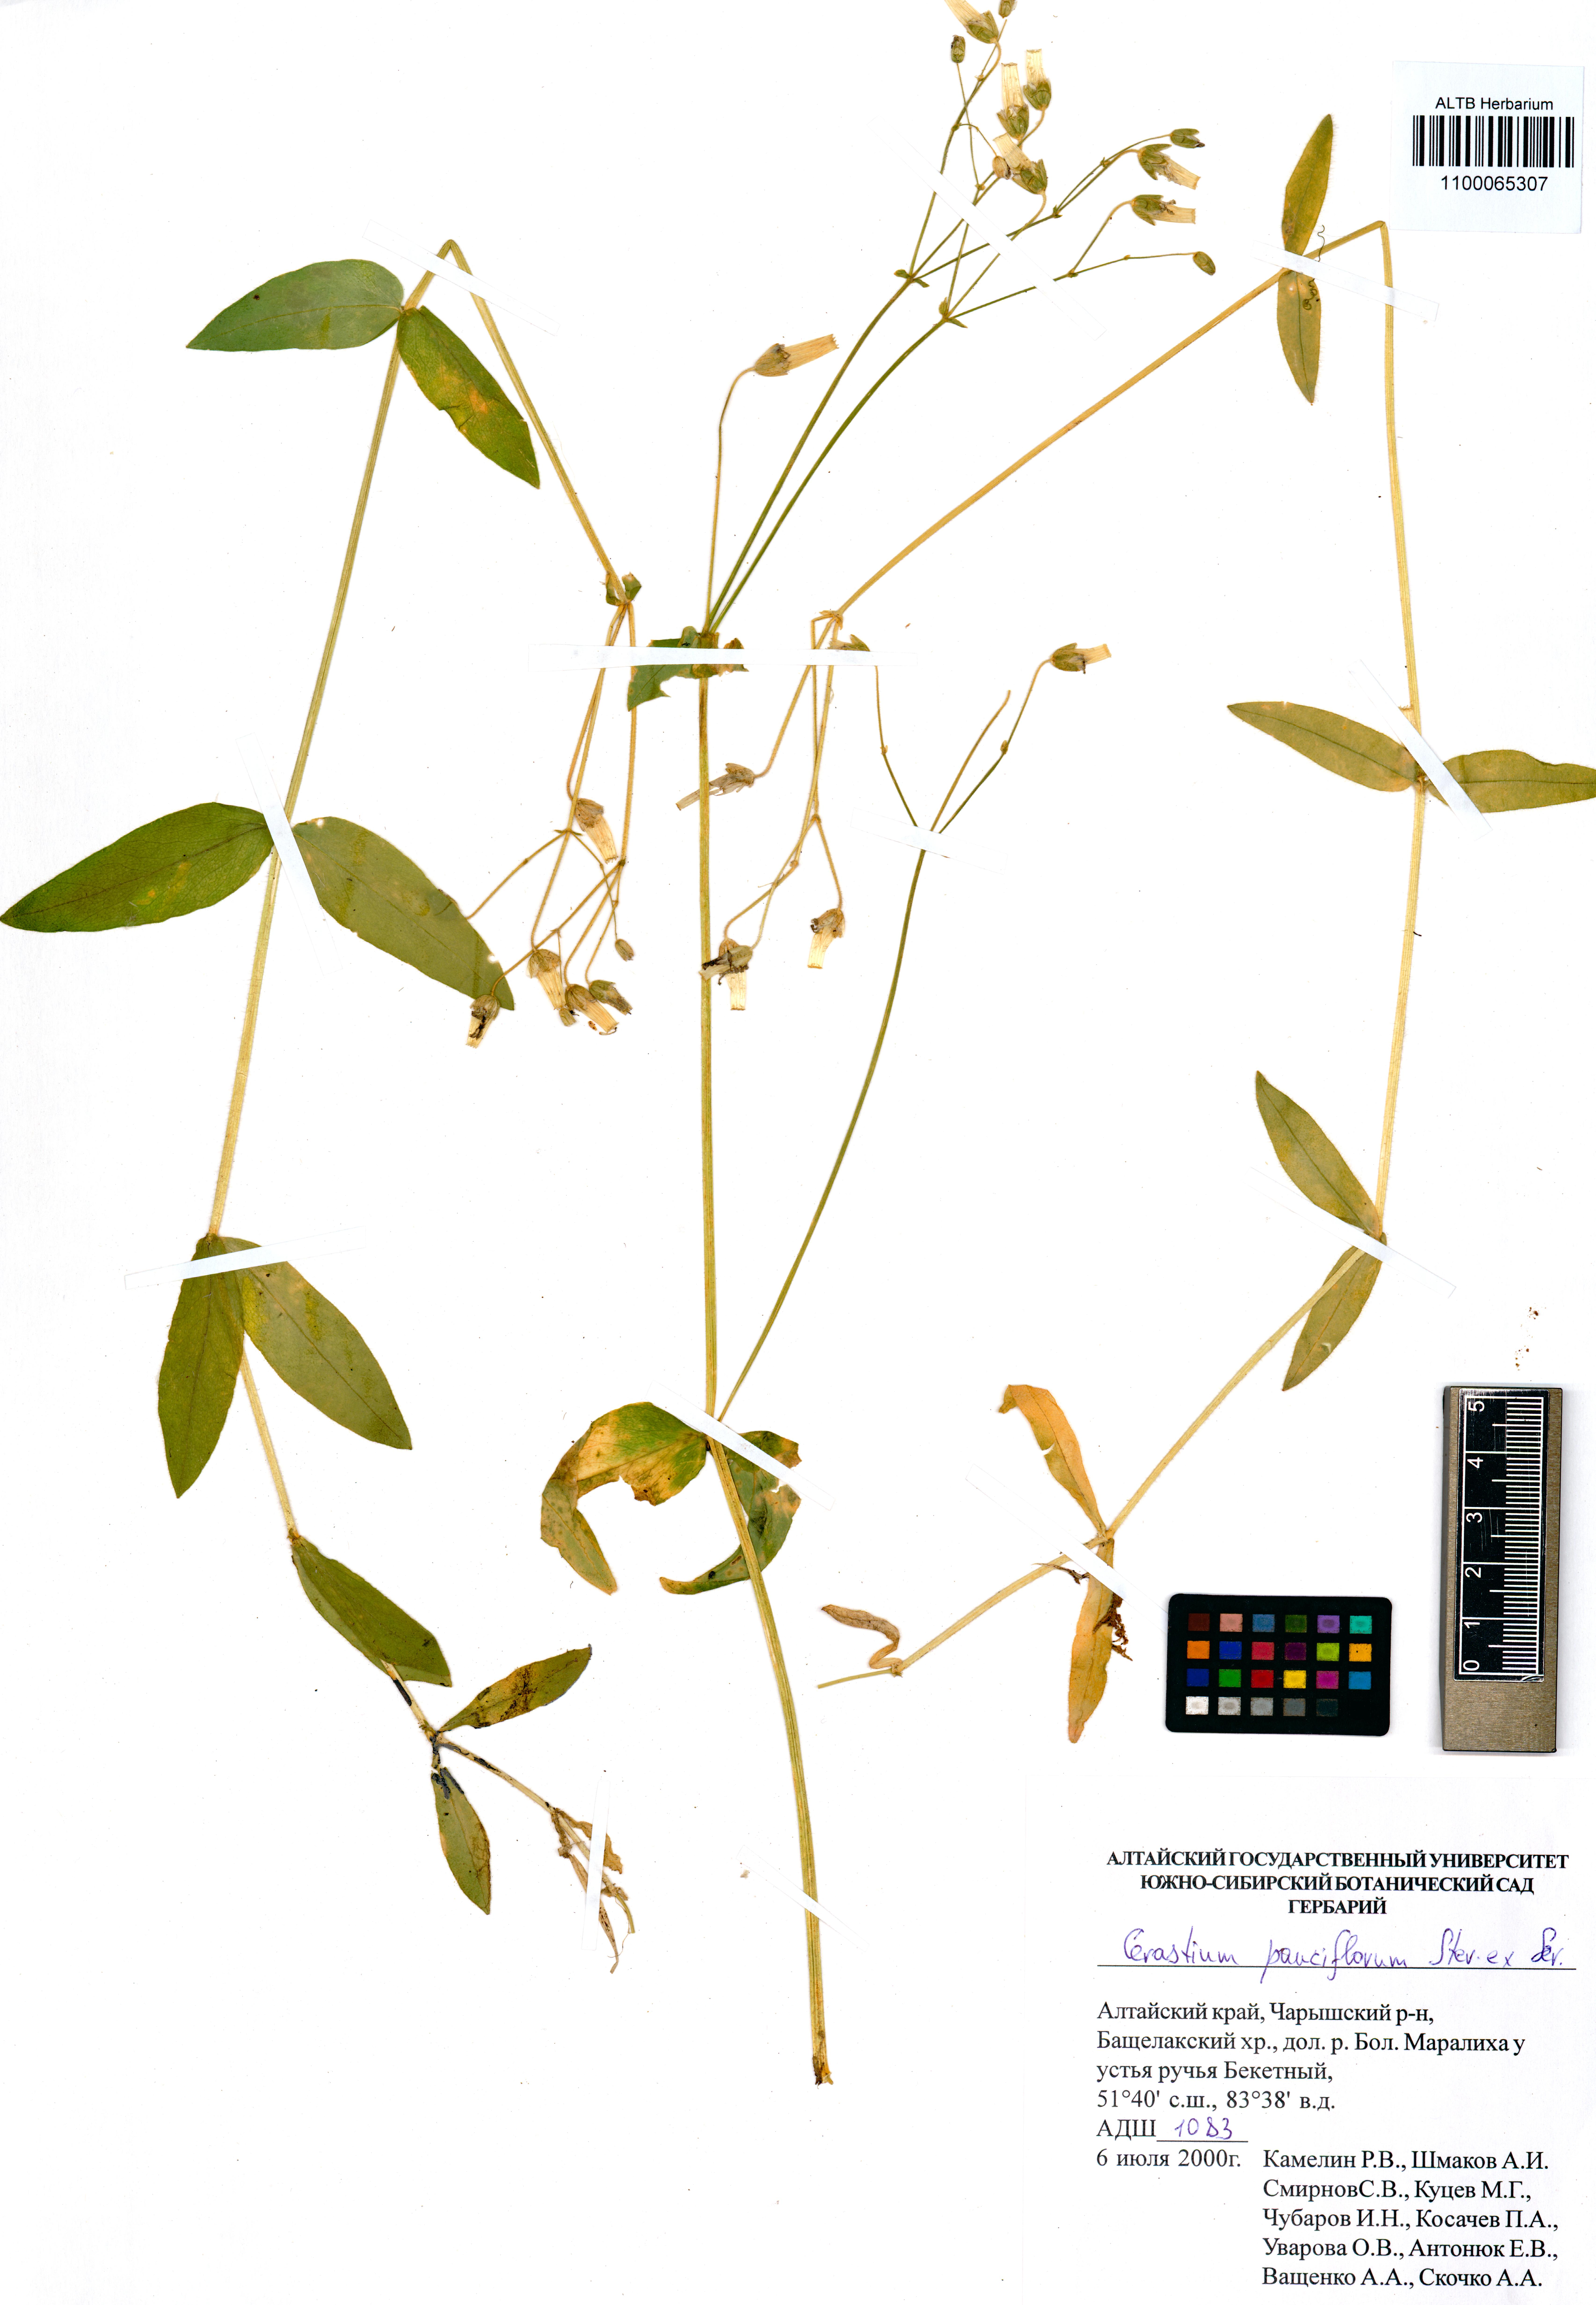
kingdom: Plantae
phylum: Tracheophyta
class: Magnoliopsida
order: Caryophyllales
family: Caryophyllaceae
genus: Cerastium
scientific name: Cerastium pauciflorum
